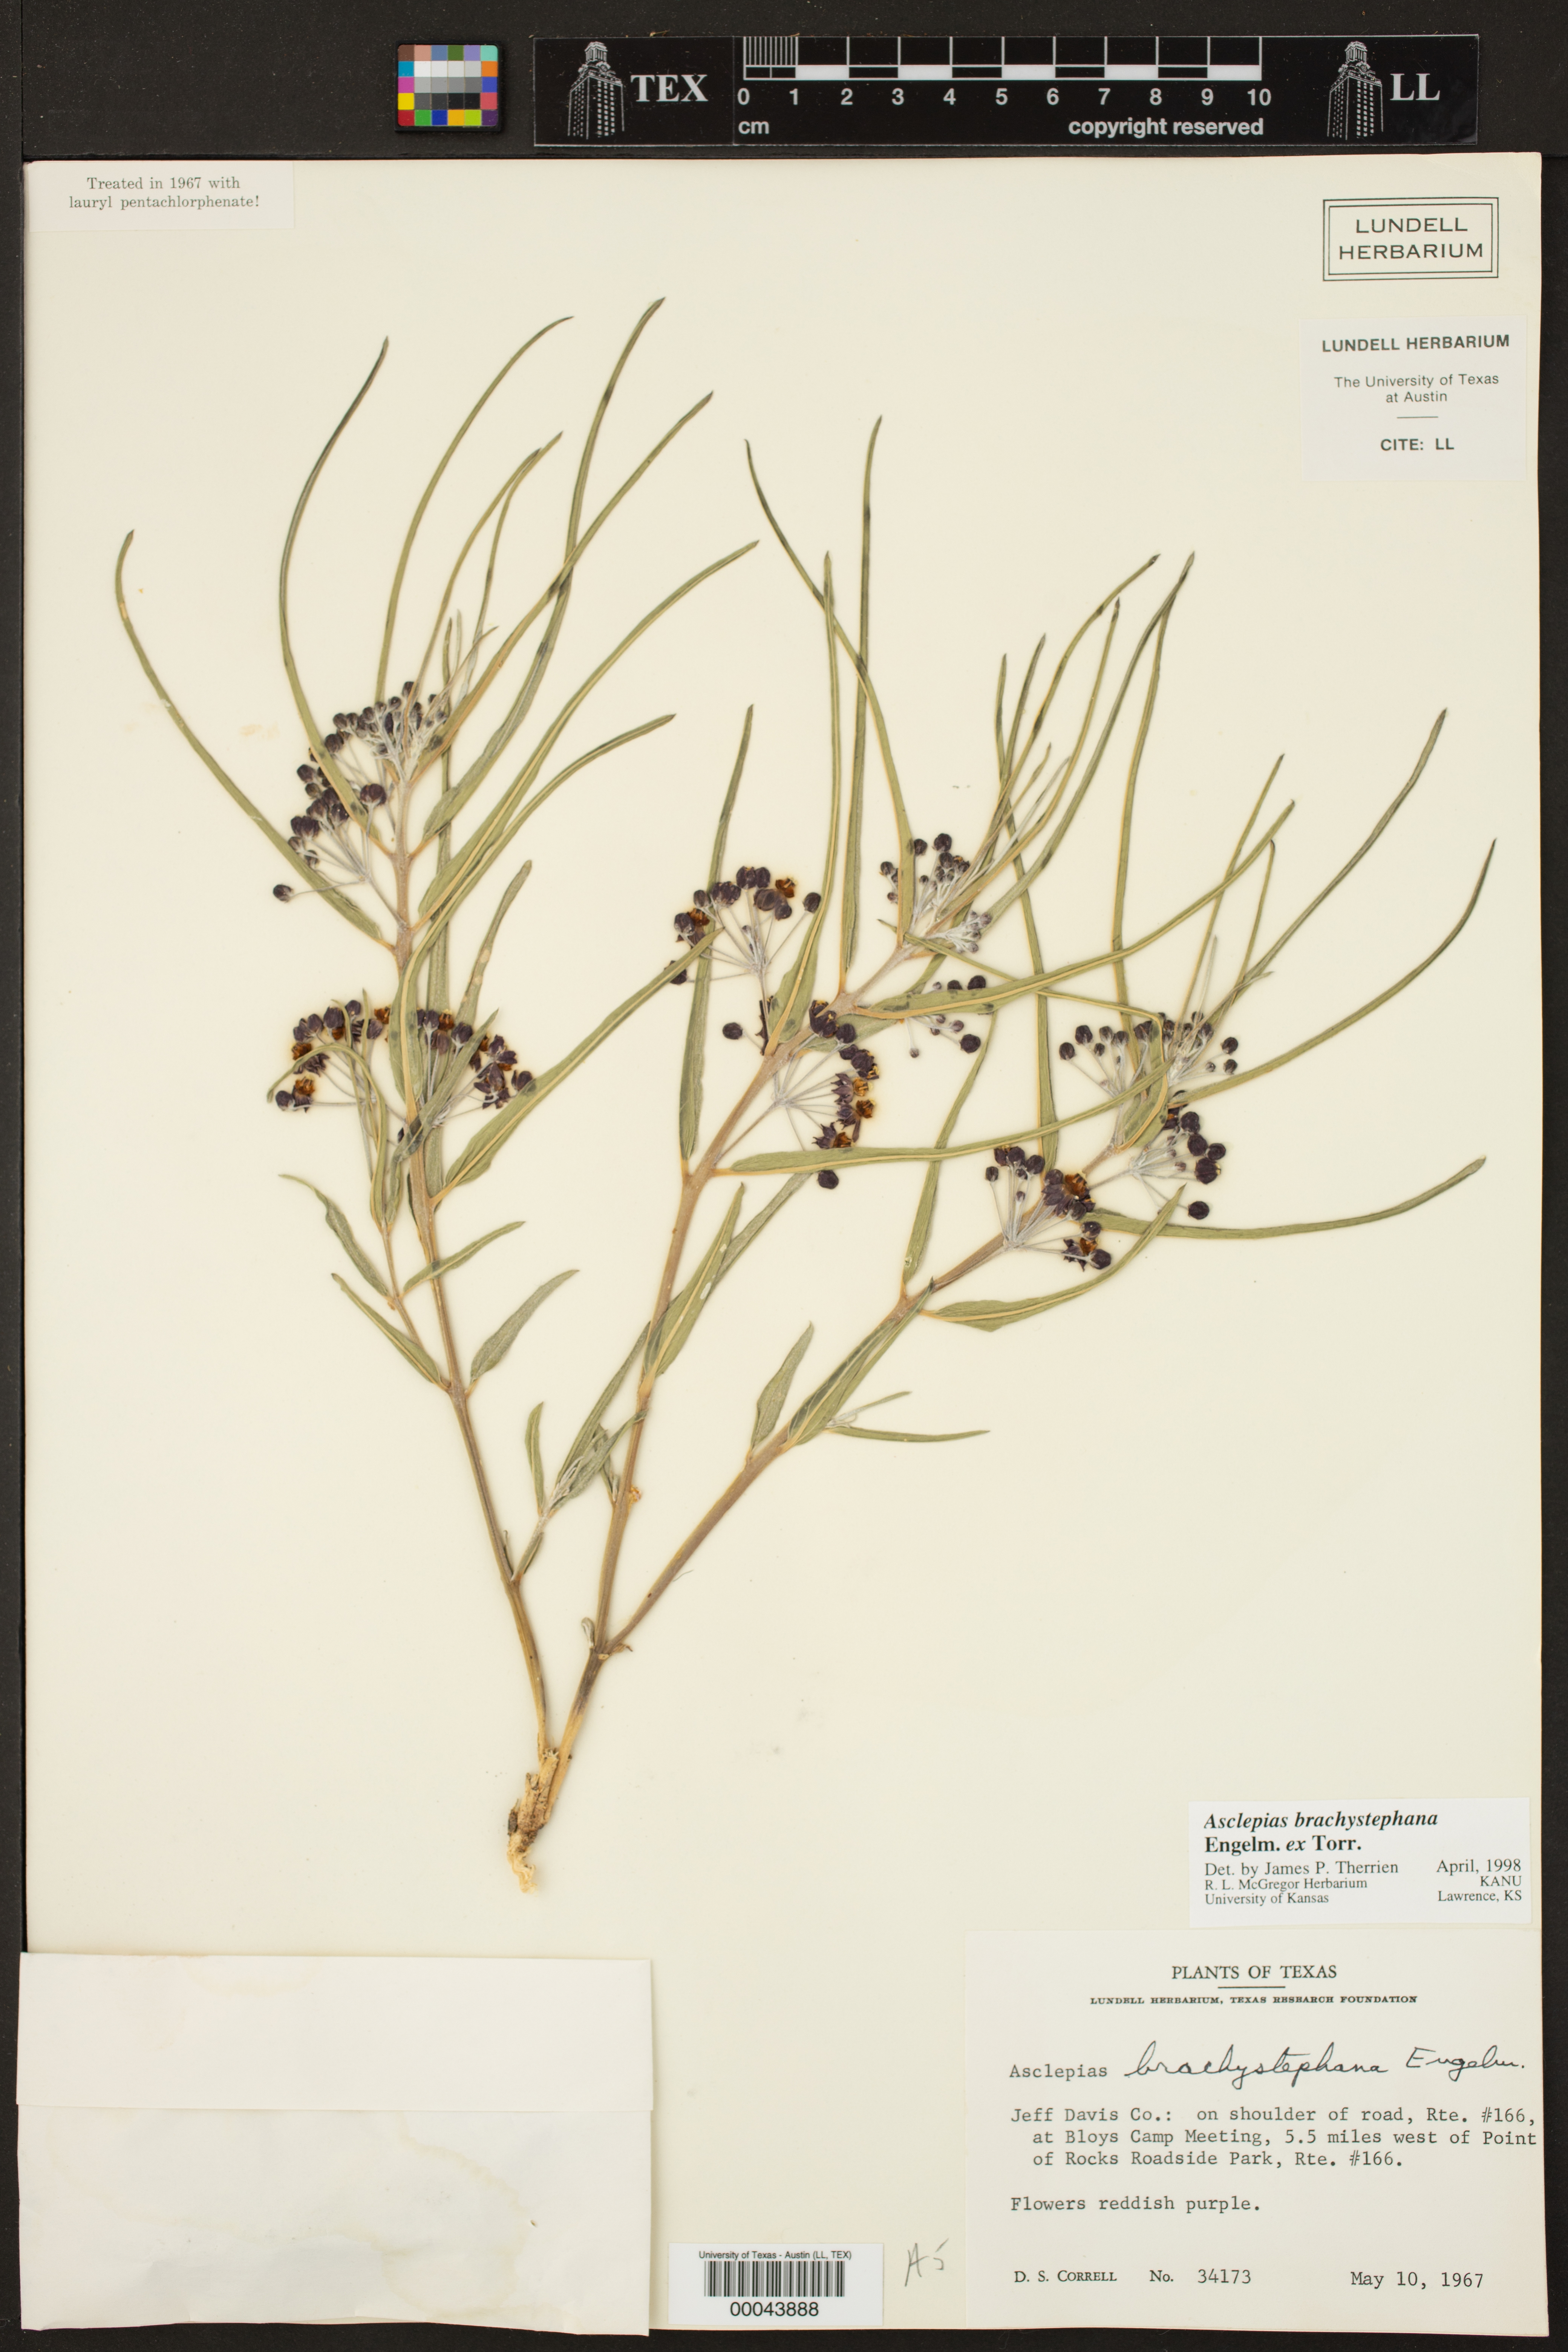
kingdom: Plantae
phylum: Tracheophyta
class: Magnoliopsida
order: Gentianales
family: Apocynaceae
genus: Asclepias
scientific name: Asclepias brachystephana
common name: Shortcrown milkweed
